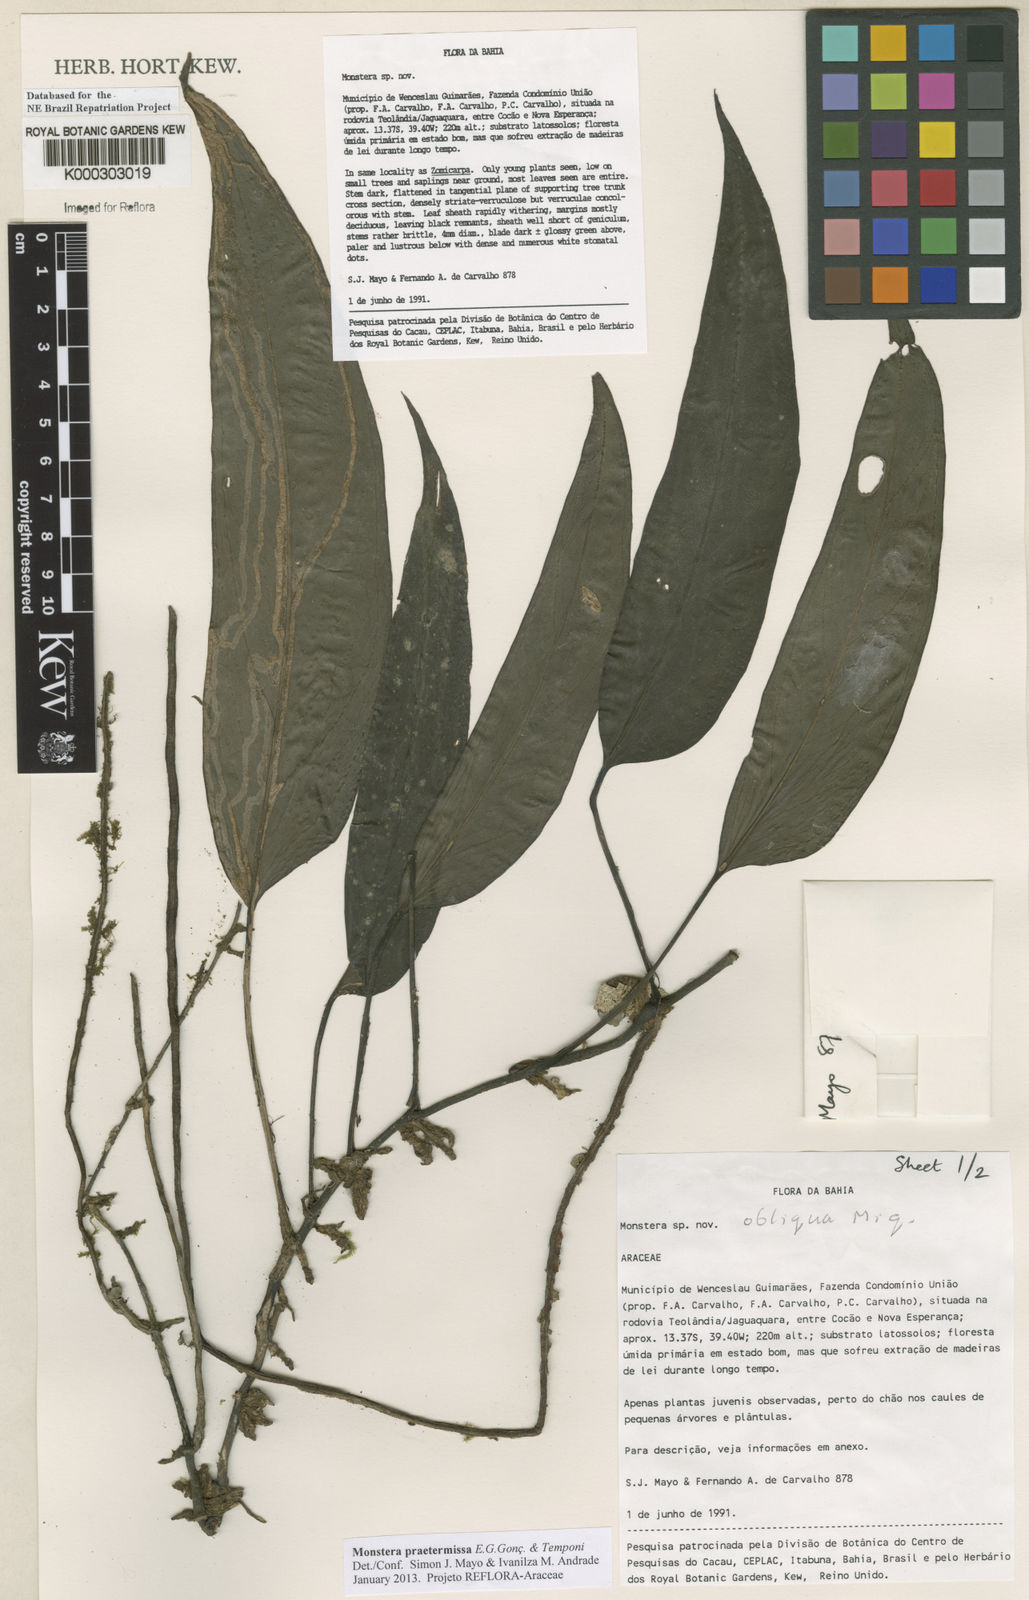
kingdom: Plantae
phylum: Tracheophyta
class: Liliopsida
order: Alismatales
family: Araceae
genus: Monstera
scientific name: Monstera obliqua
